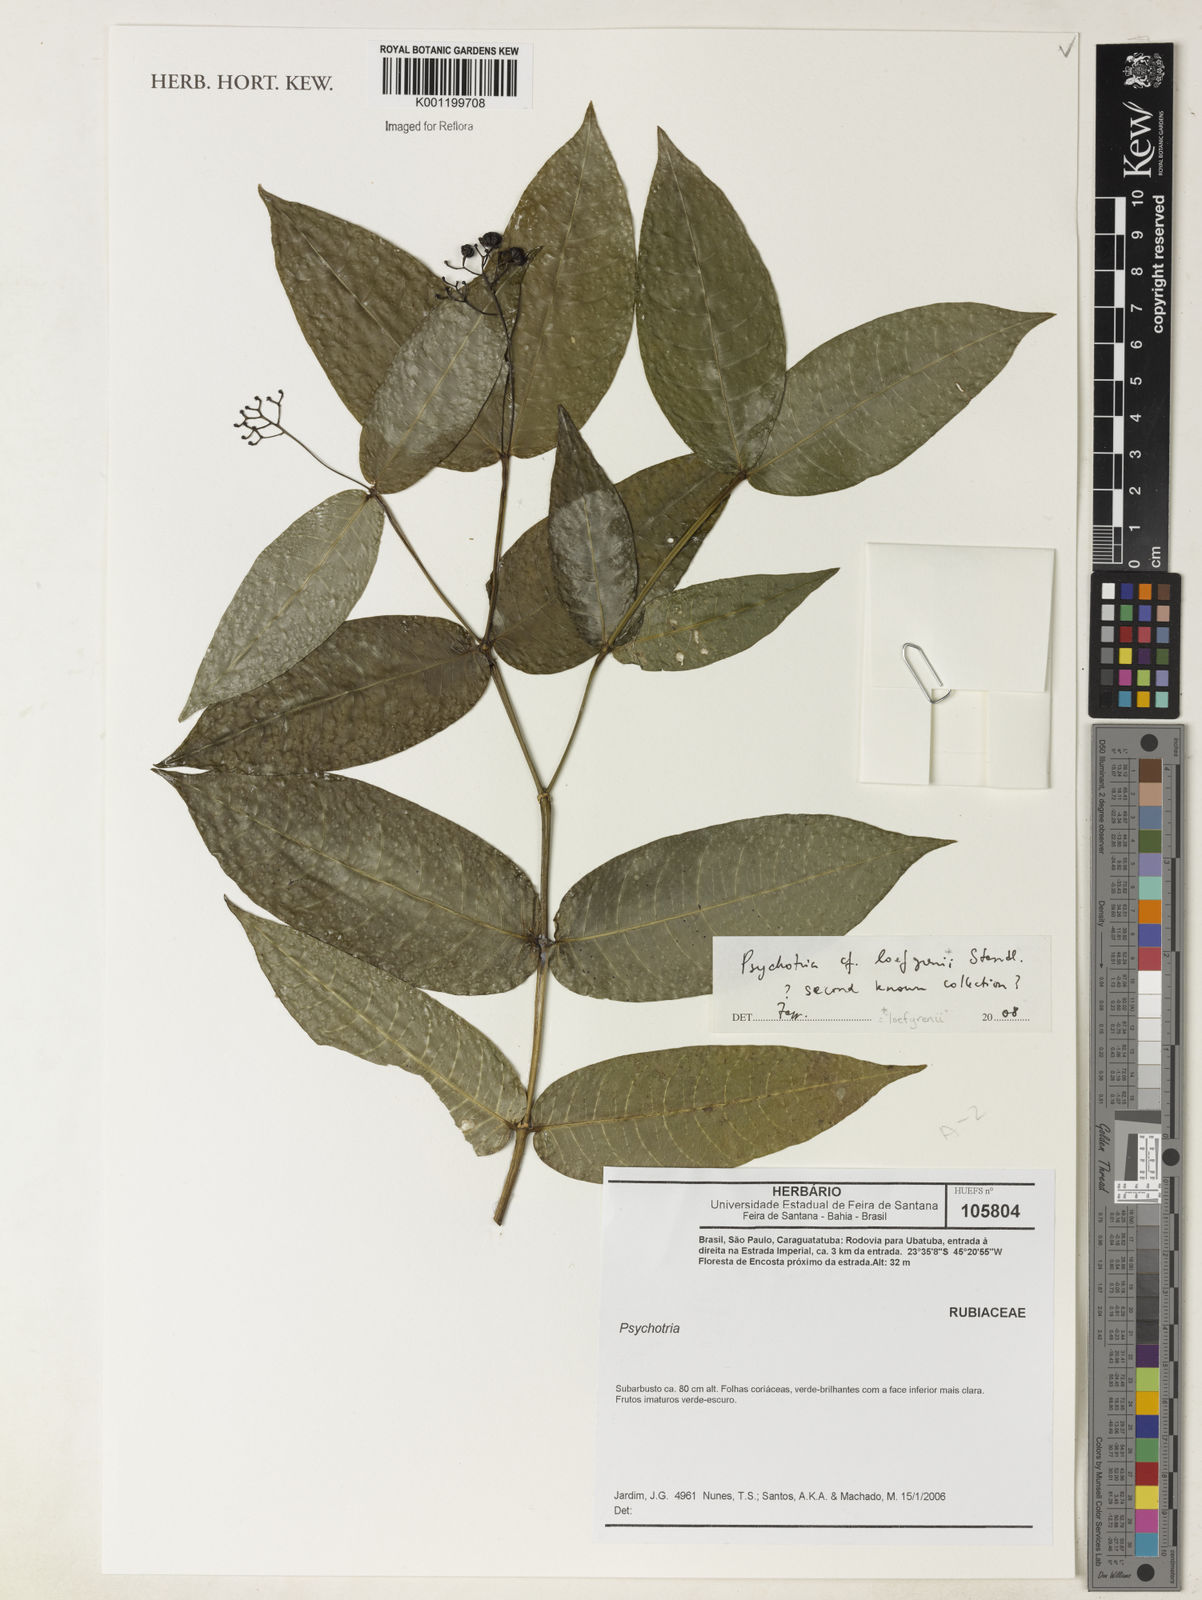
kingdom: Plantae
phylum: Tracheophyta
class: Magnoliopsida
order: Gentianales
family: Rubiaceae
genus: Psychotria
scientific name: Psychotria loefgrenii
